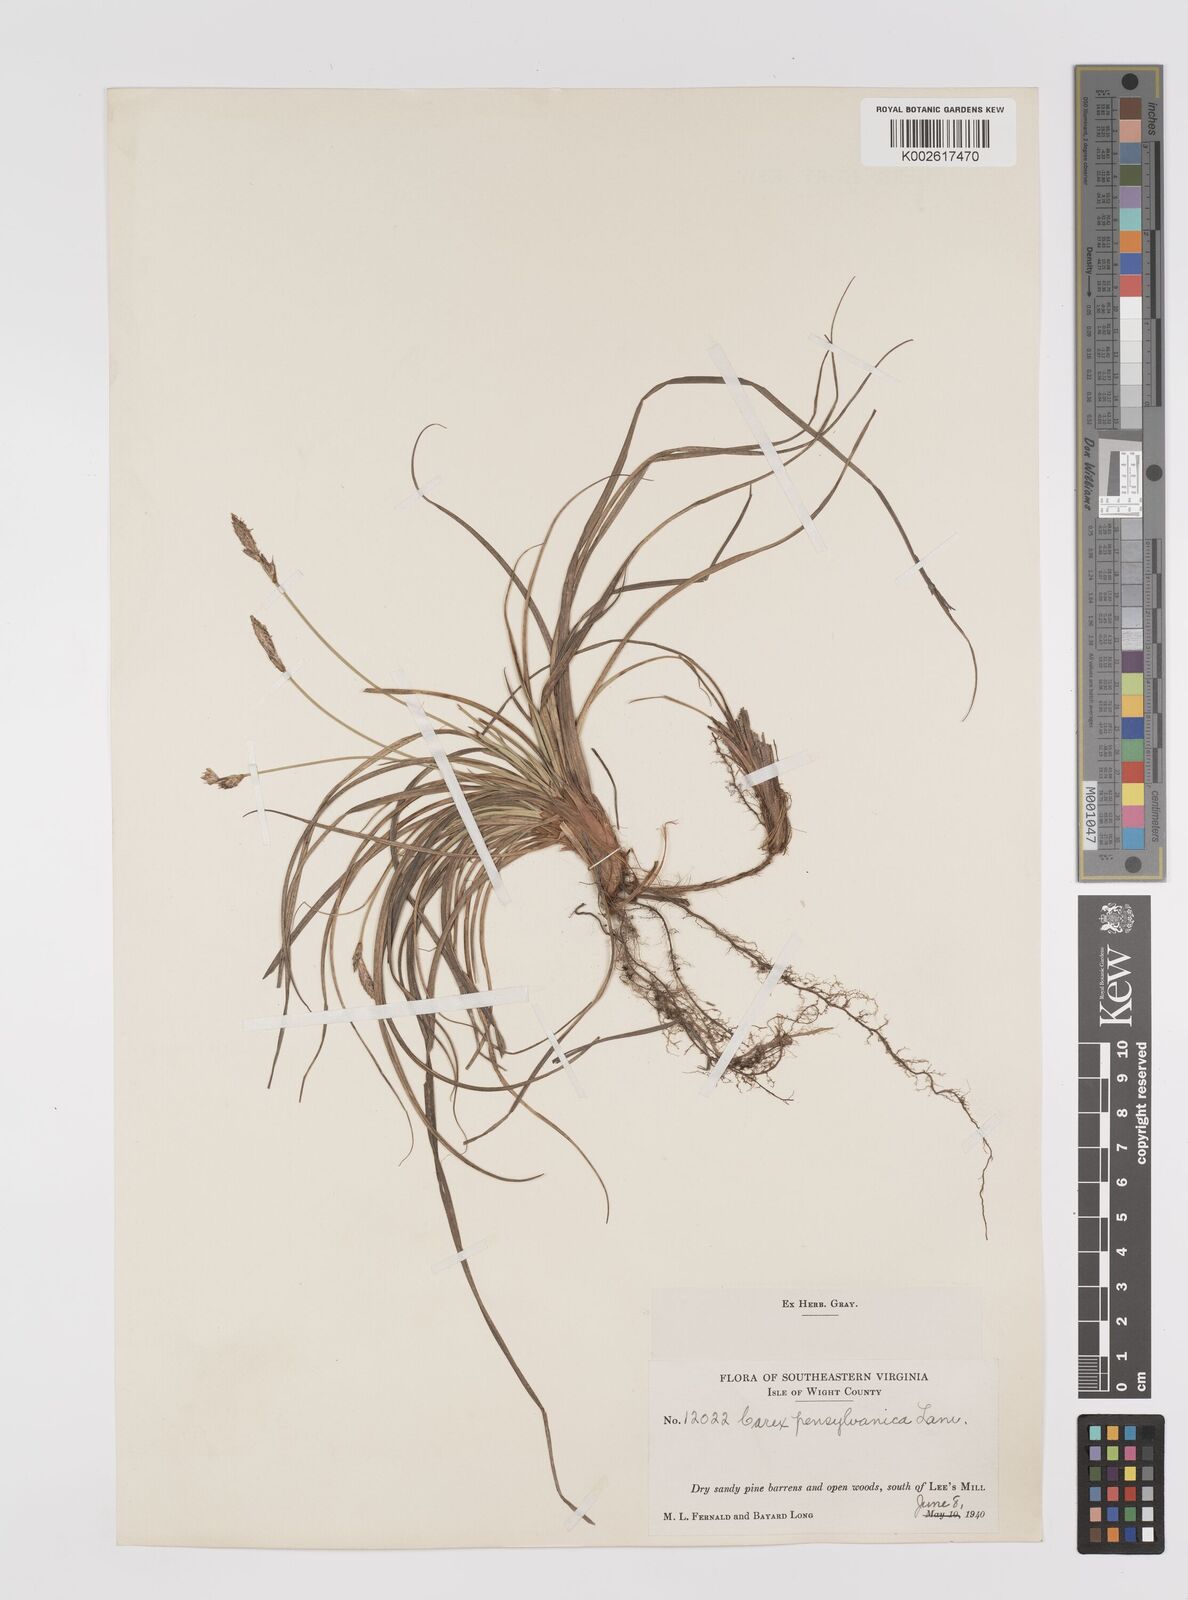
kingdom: Plantae
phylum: Tracheophyta
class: Liliopsida
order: Poales
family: Cyperaceae
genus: Carex
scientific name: Carex pensylvanica
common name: Common oak sedge
